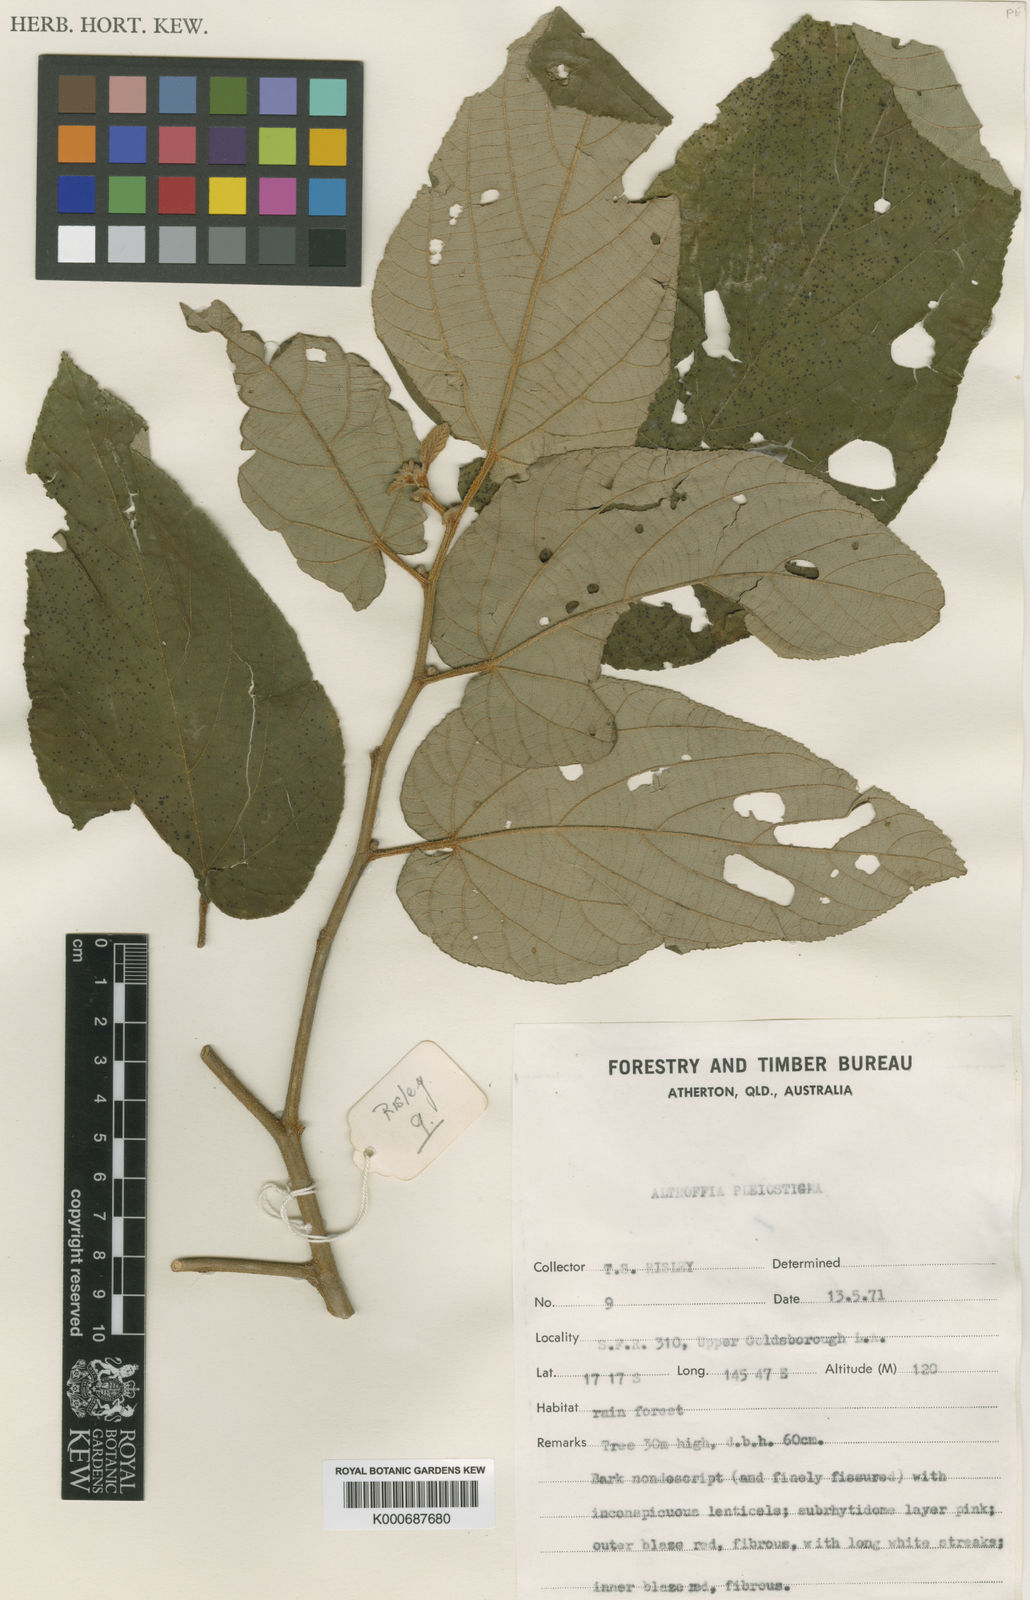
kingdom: Plantae
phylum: Tracheophyta
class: Magnoliopsida
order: Malvales
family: Malvaceae
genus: Trichospermum
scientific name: Trichospermum pleiostigma
